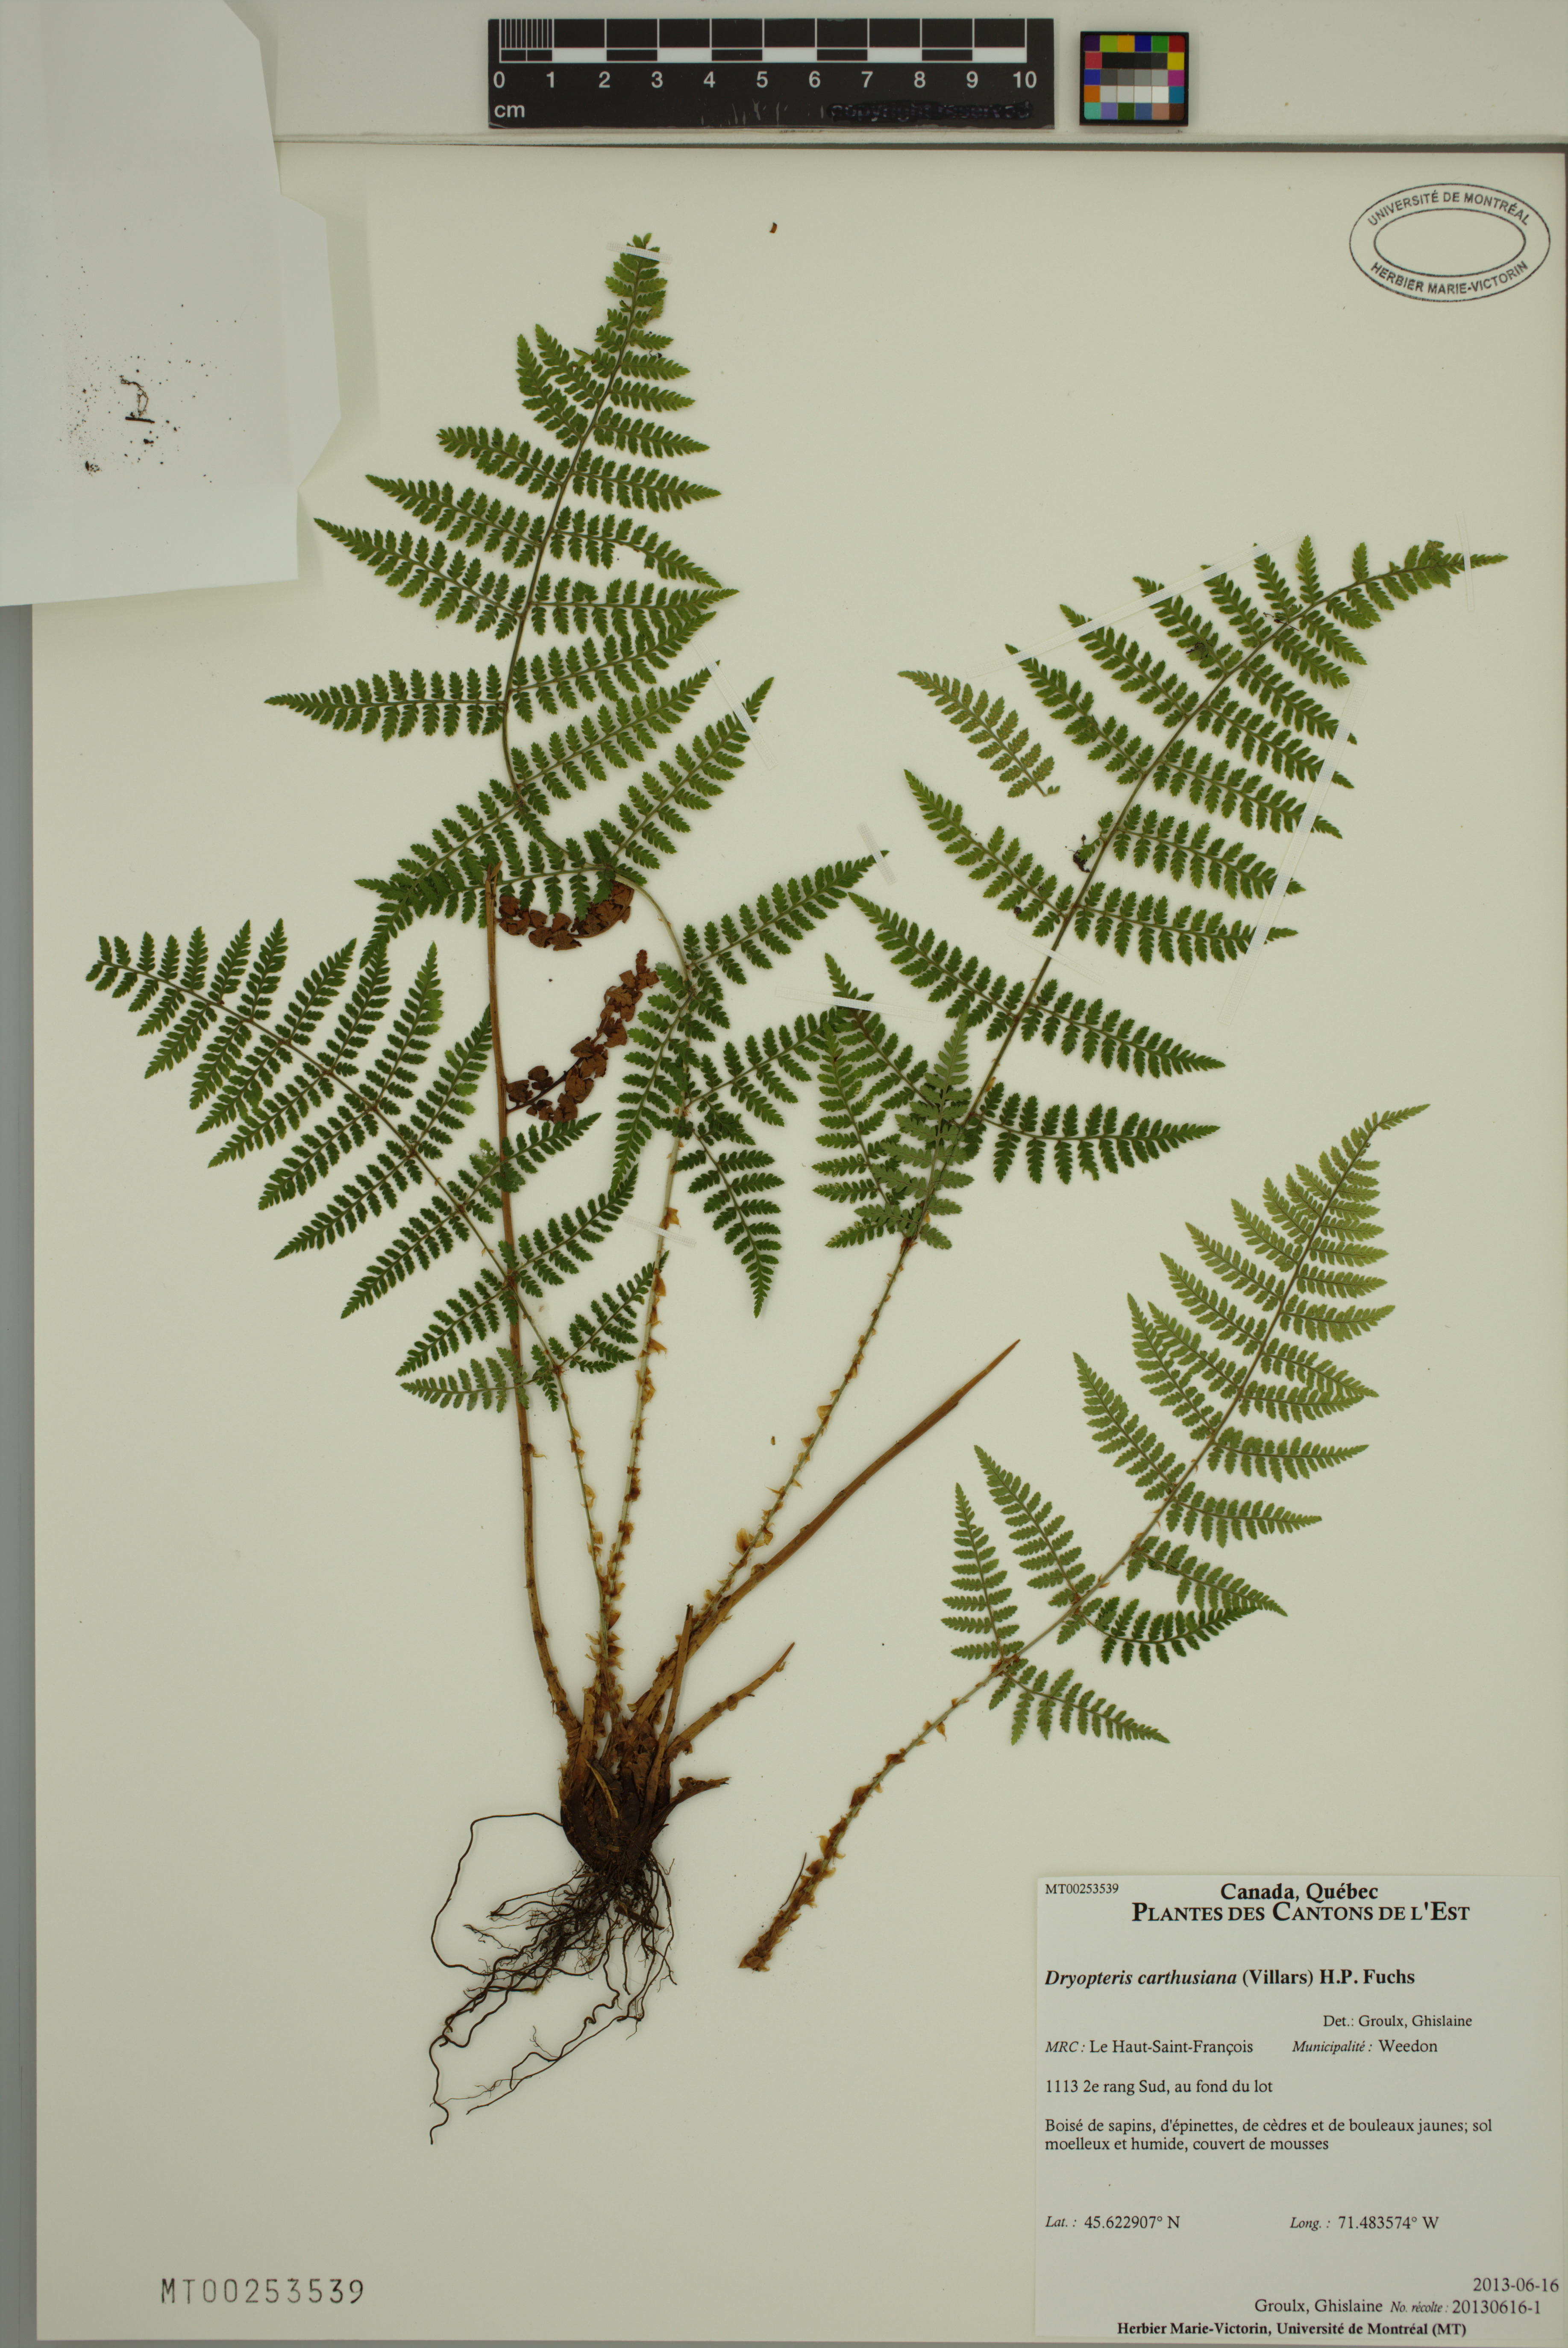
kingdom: Plantae
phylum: Tracheophyta
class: Polypodiopsida
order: Polypodiales
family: Dryopteridaceae
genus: Dryopteris
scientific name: Dryopteris carthusiana
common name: Narrow buckler-fern
